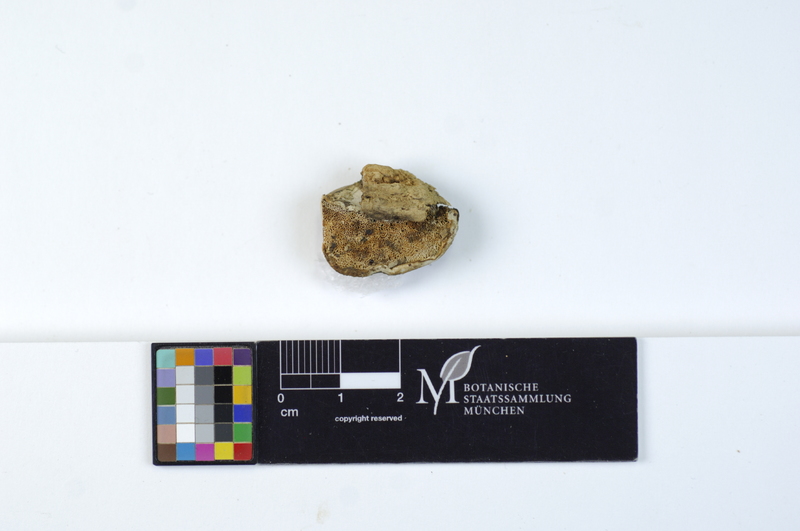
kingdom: Plantae
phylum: Tracheophyta
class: Magnoliopsida
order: Lamiales
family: Oleaceae
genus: Fraxinus
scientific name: Fraxinus
